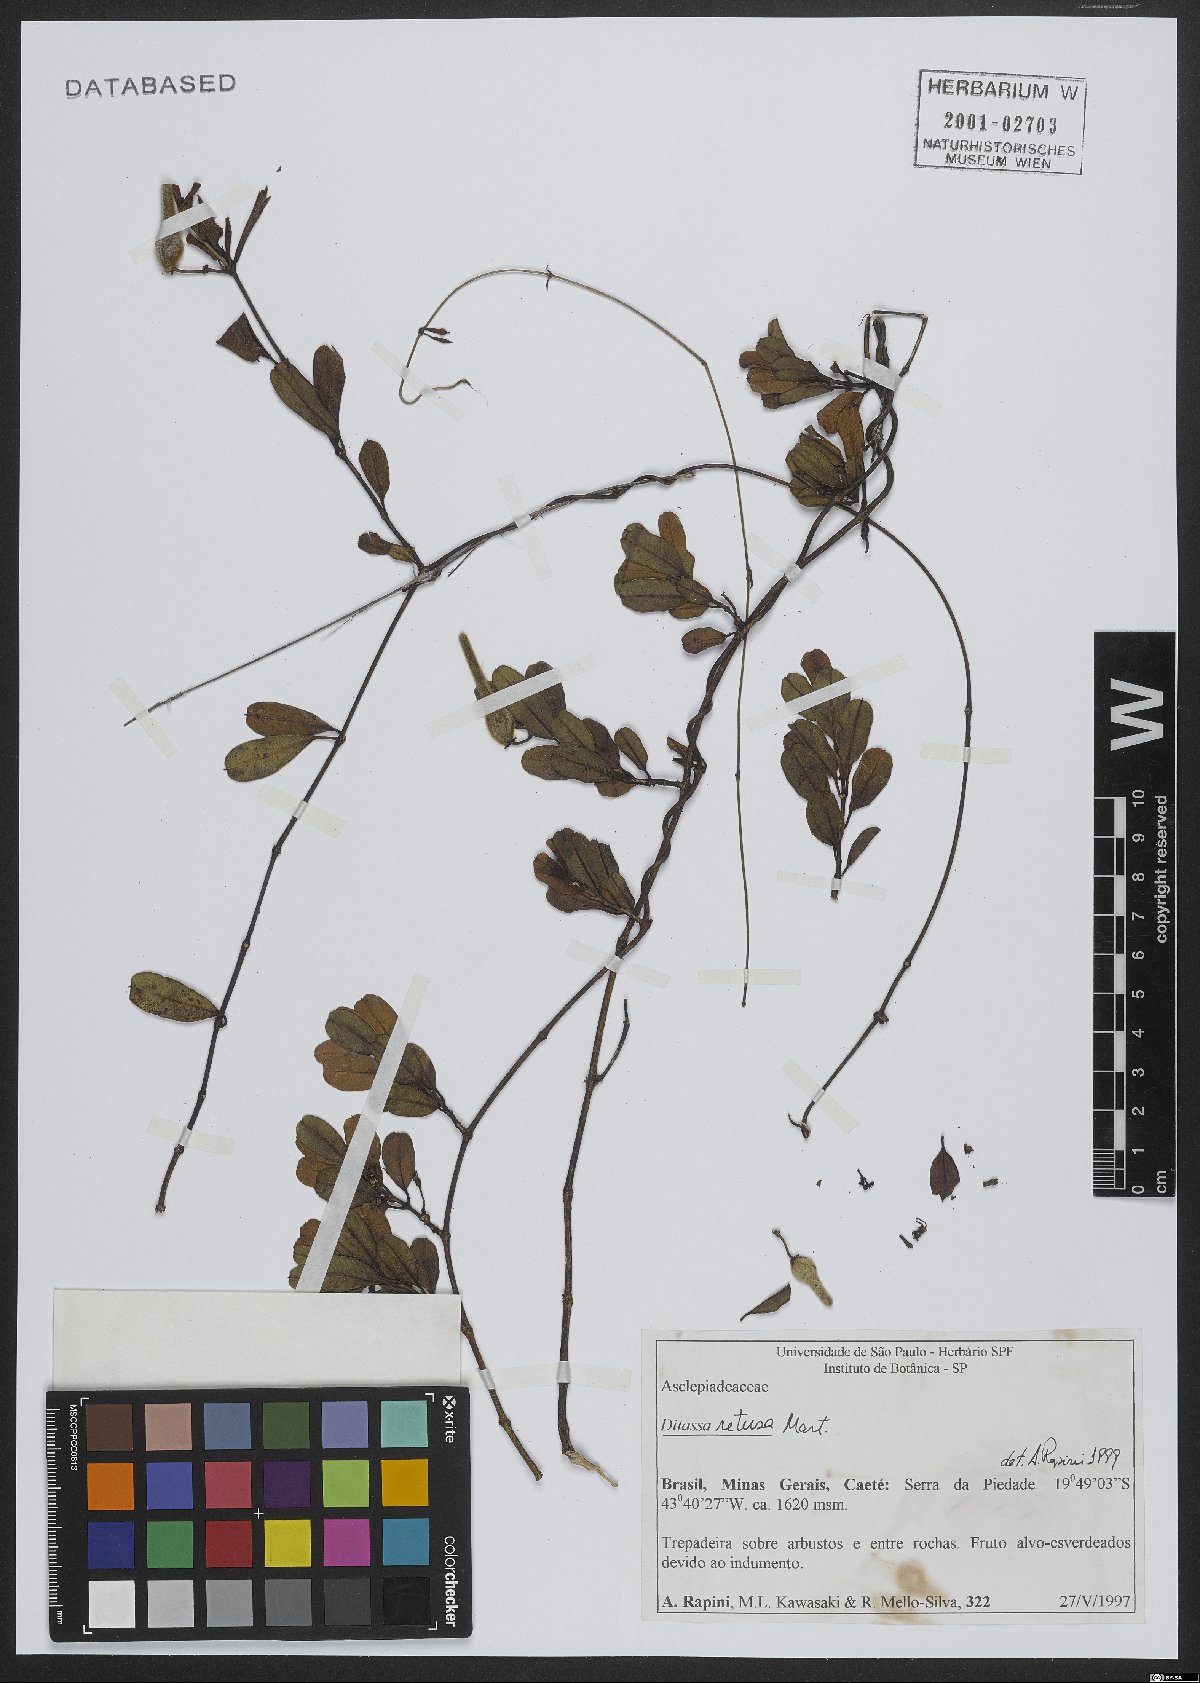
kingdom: Plantae
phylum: Tracheophyta
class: Magnoliopsida
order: Gentianales
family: Apocynaceae
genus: Ditassa
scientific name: Ditassa retusa
